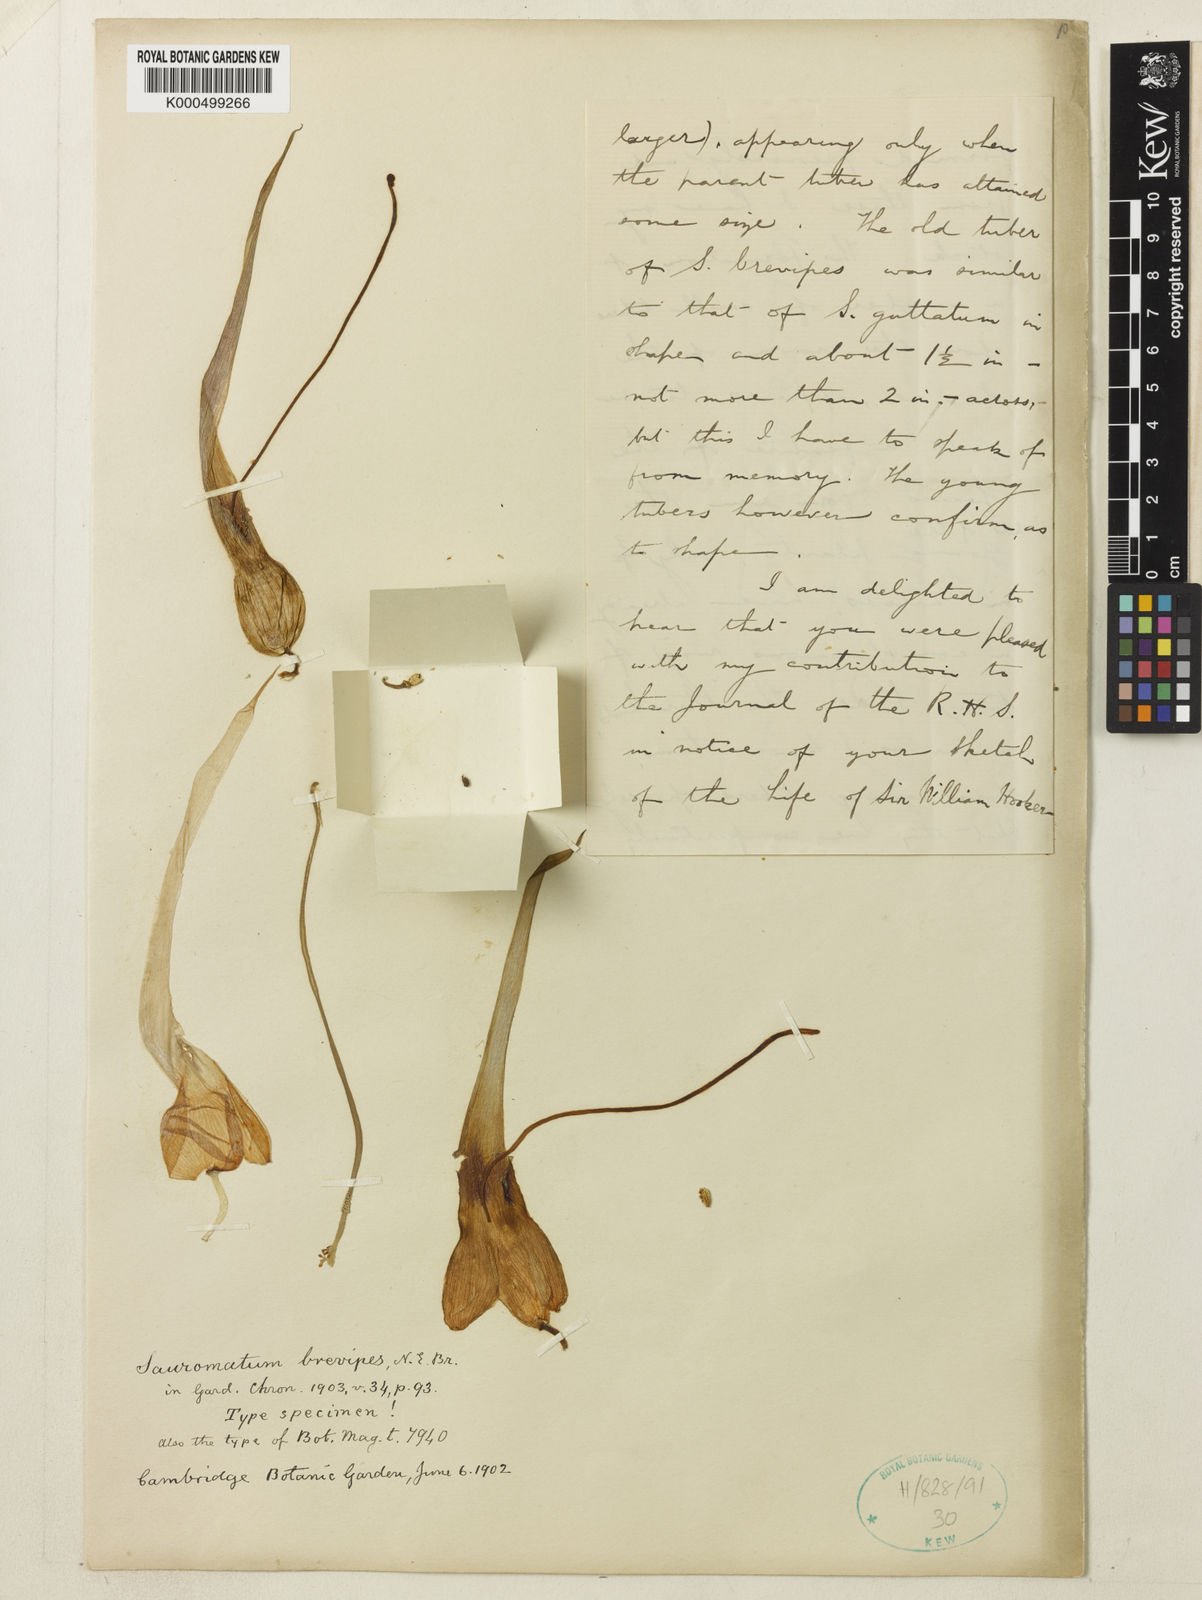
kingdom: Plantae
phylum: Tracheophyta
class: Liliopsida
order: Alismatales
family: Araceae
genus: Sauromatum
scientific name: Sauromatum brevipes
